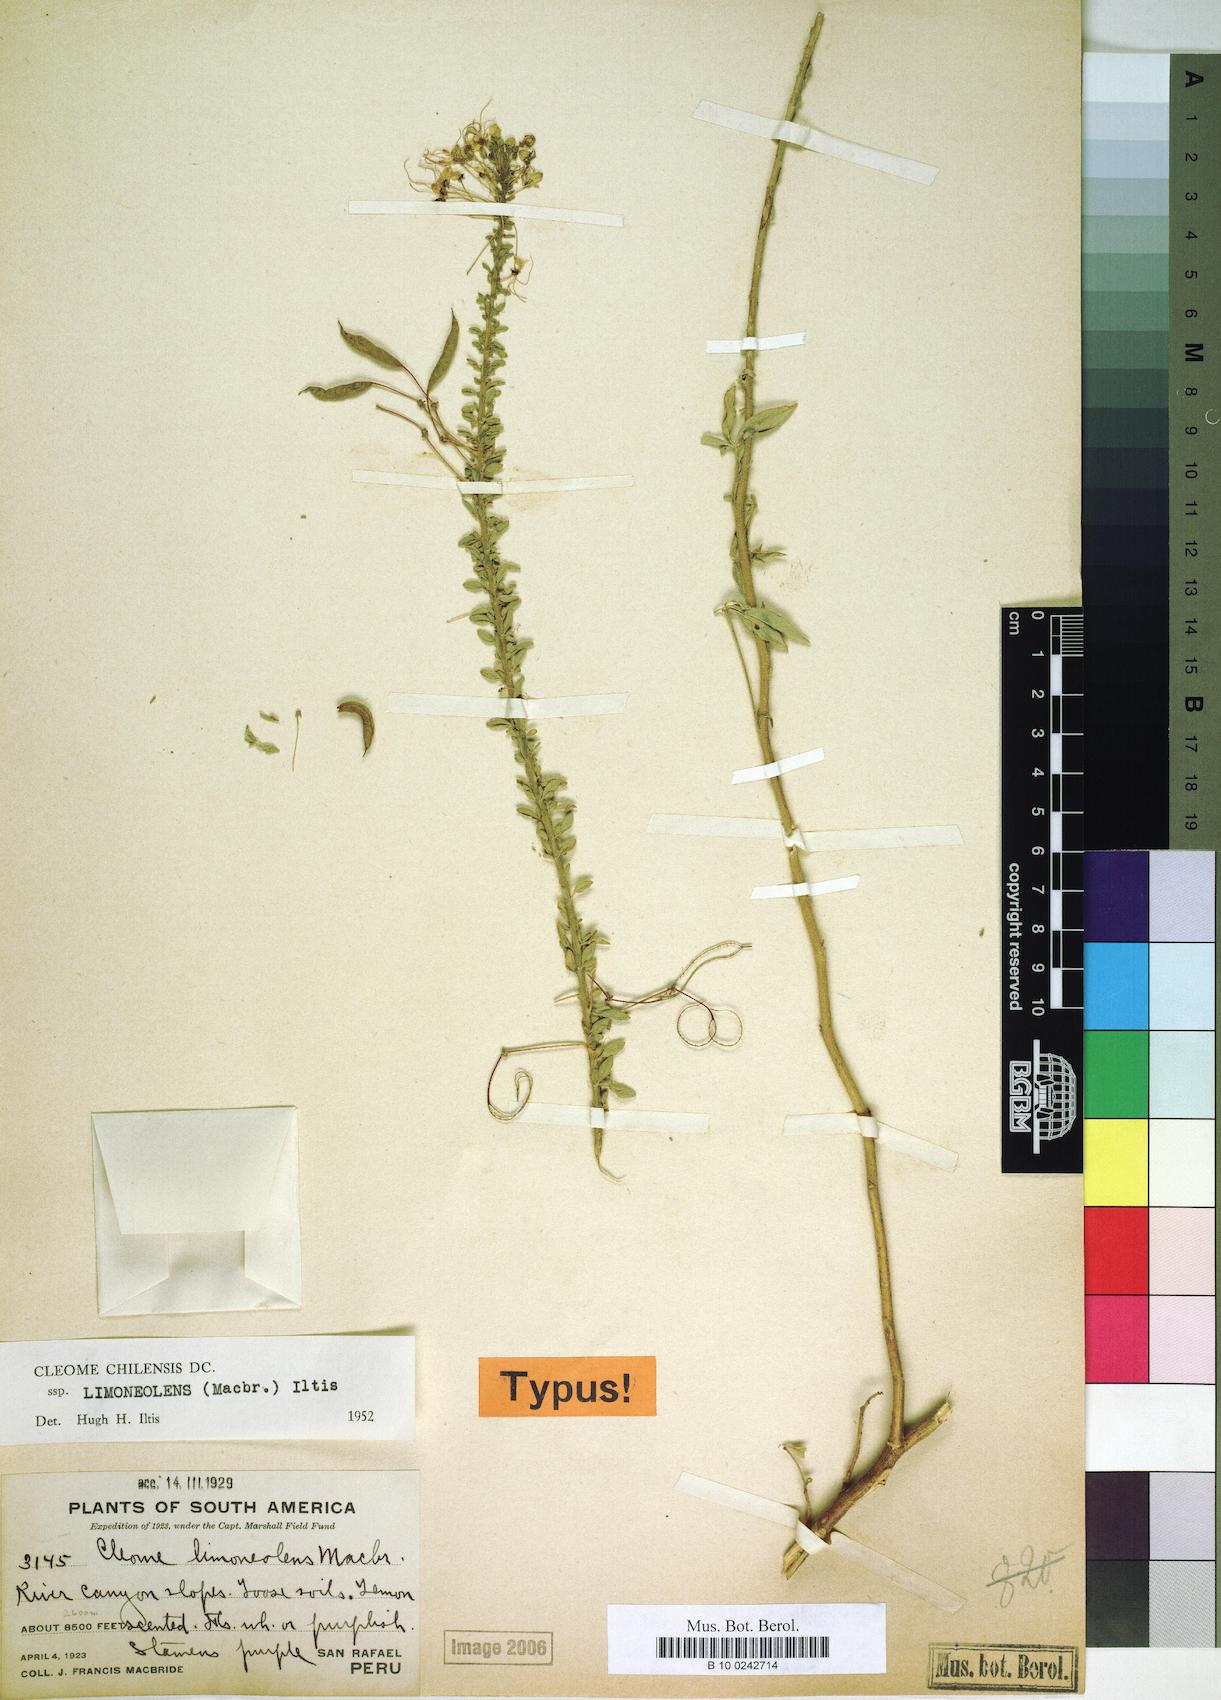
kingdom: Plantae
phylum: Tracheophyta
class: Magnoliopsida
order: Brassicales
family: Cleomaceae
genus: Andinocleome
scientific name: Andinocleome chilensis
